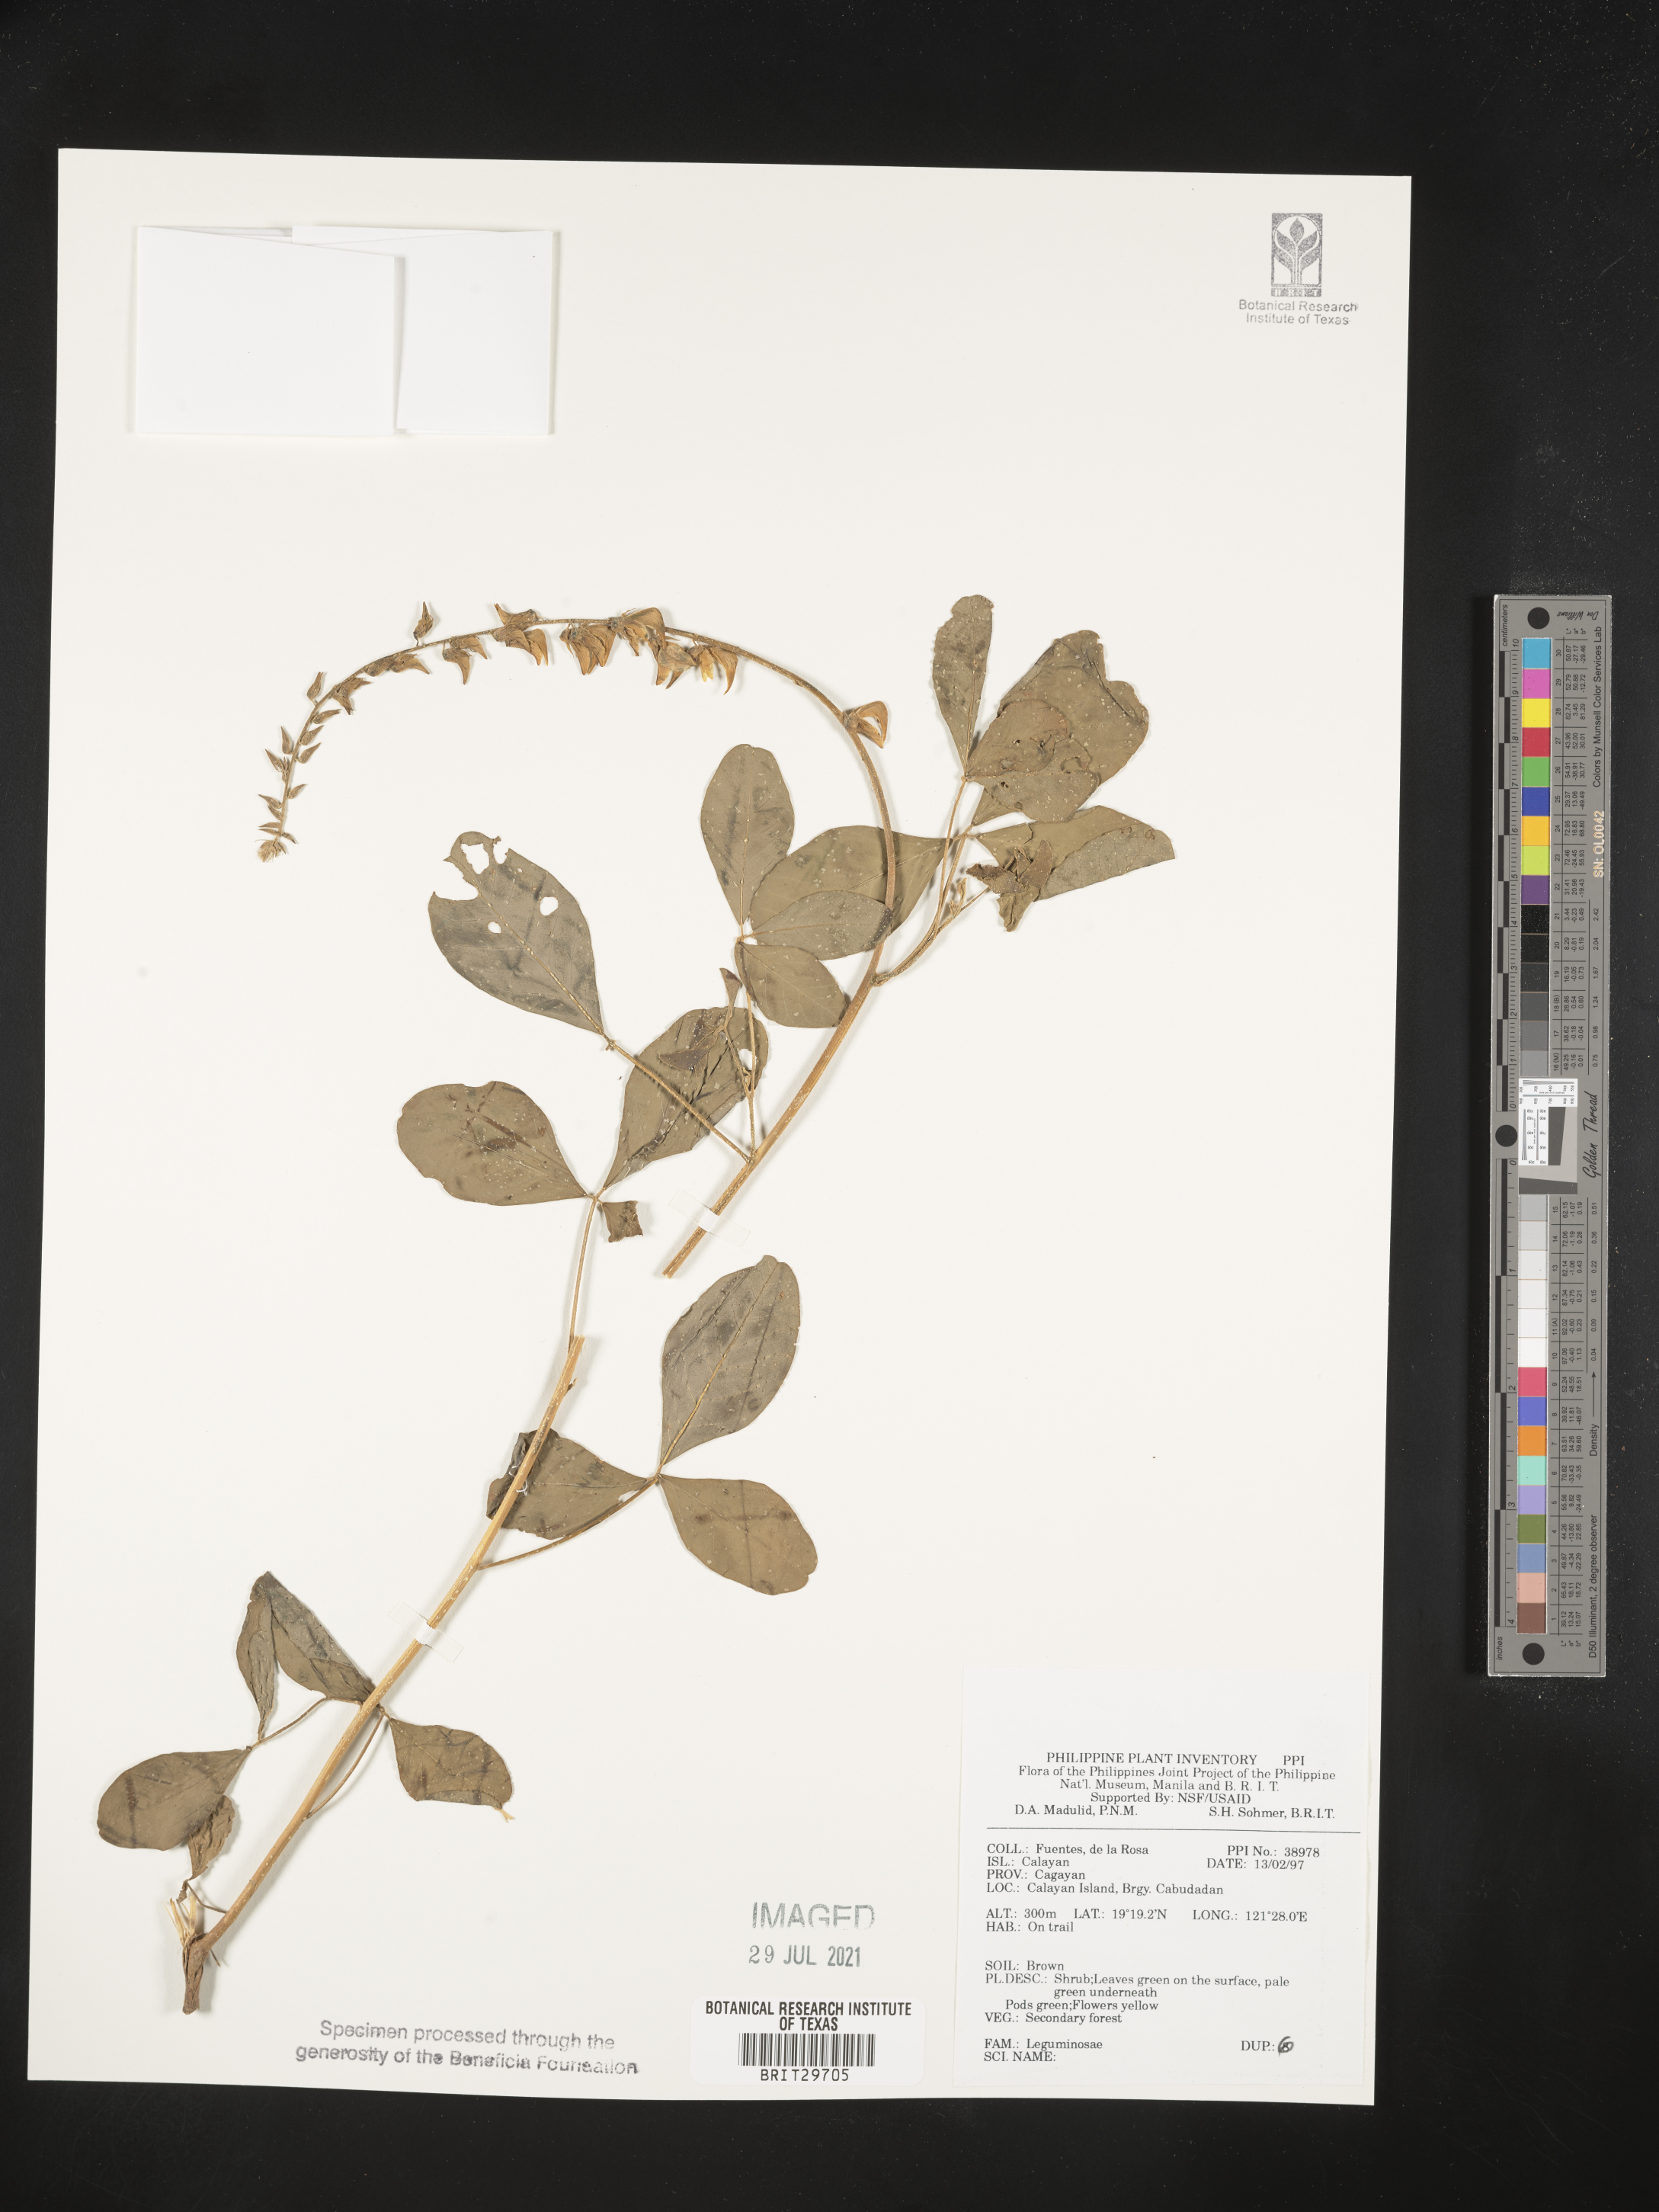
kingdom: Plantae
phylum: Tracheophyta
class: Magnoliopsida
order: Fabales
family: Fabaceae
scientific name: Fabaceae
